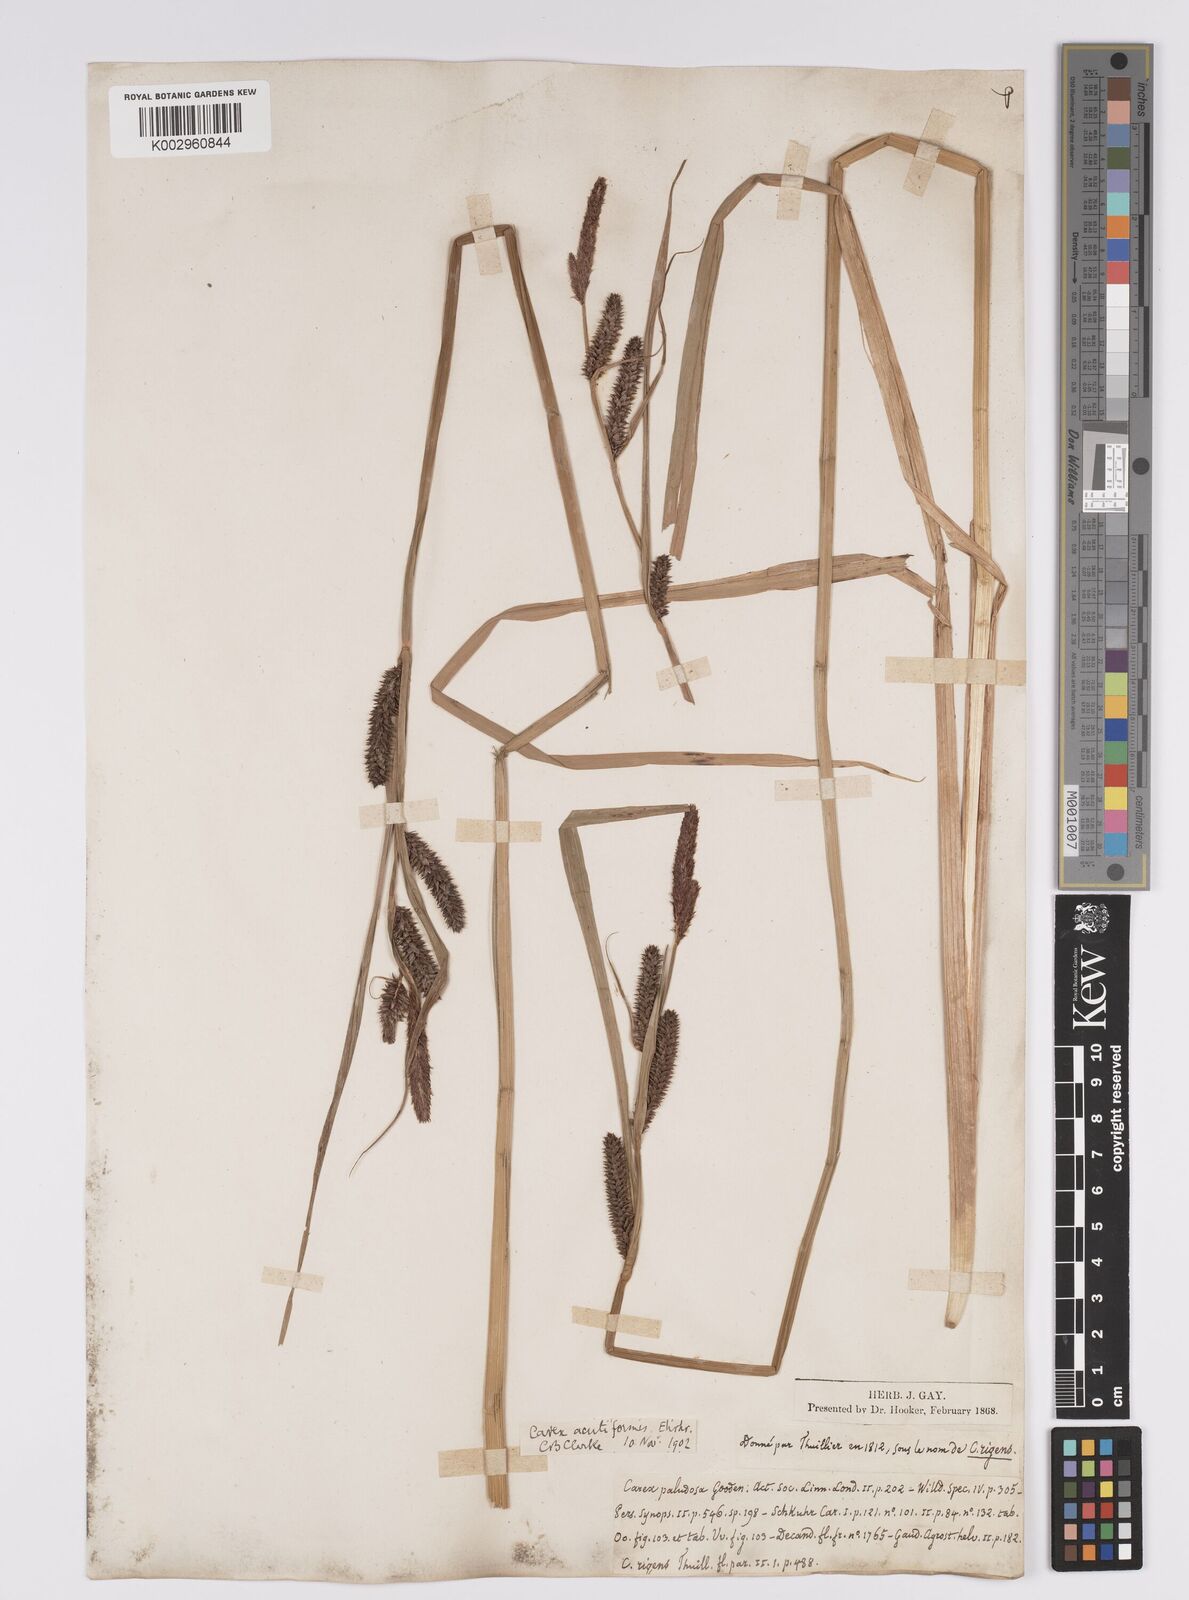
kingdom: Plantae
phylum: Tracheophyta
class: Liliopsida
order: Poales
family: Cyperaceae
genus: Carex
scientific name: Carex acutiformis
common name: Lesser pond-sedge
